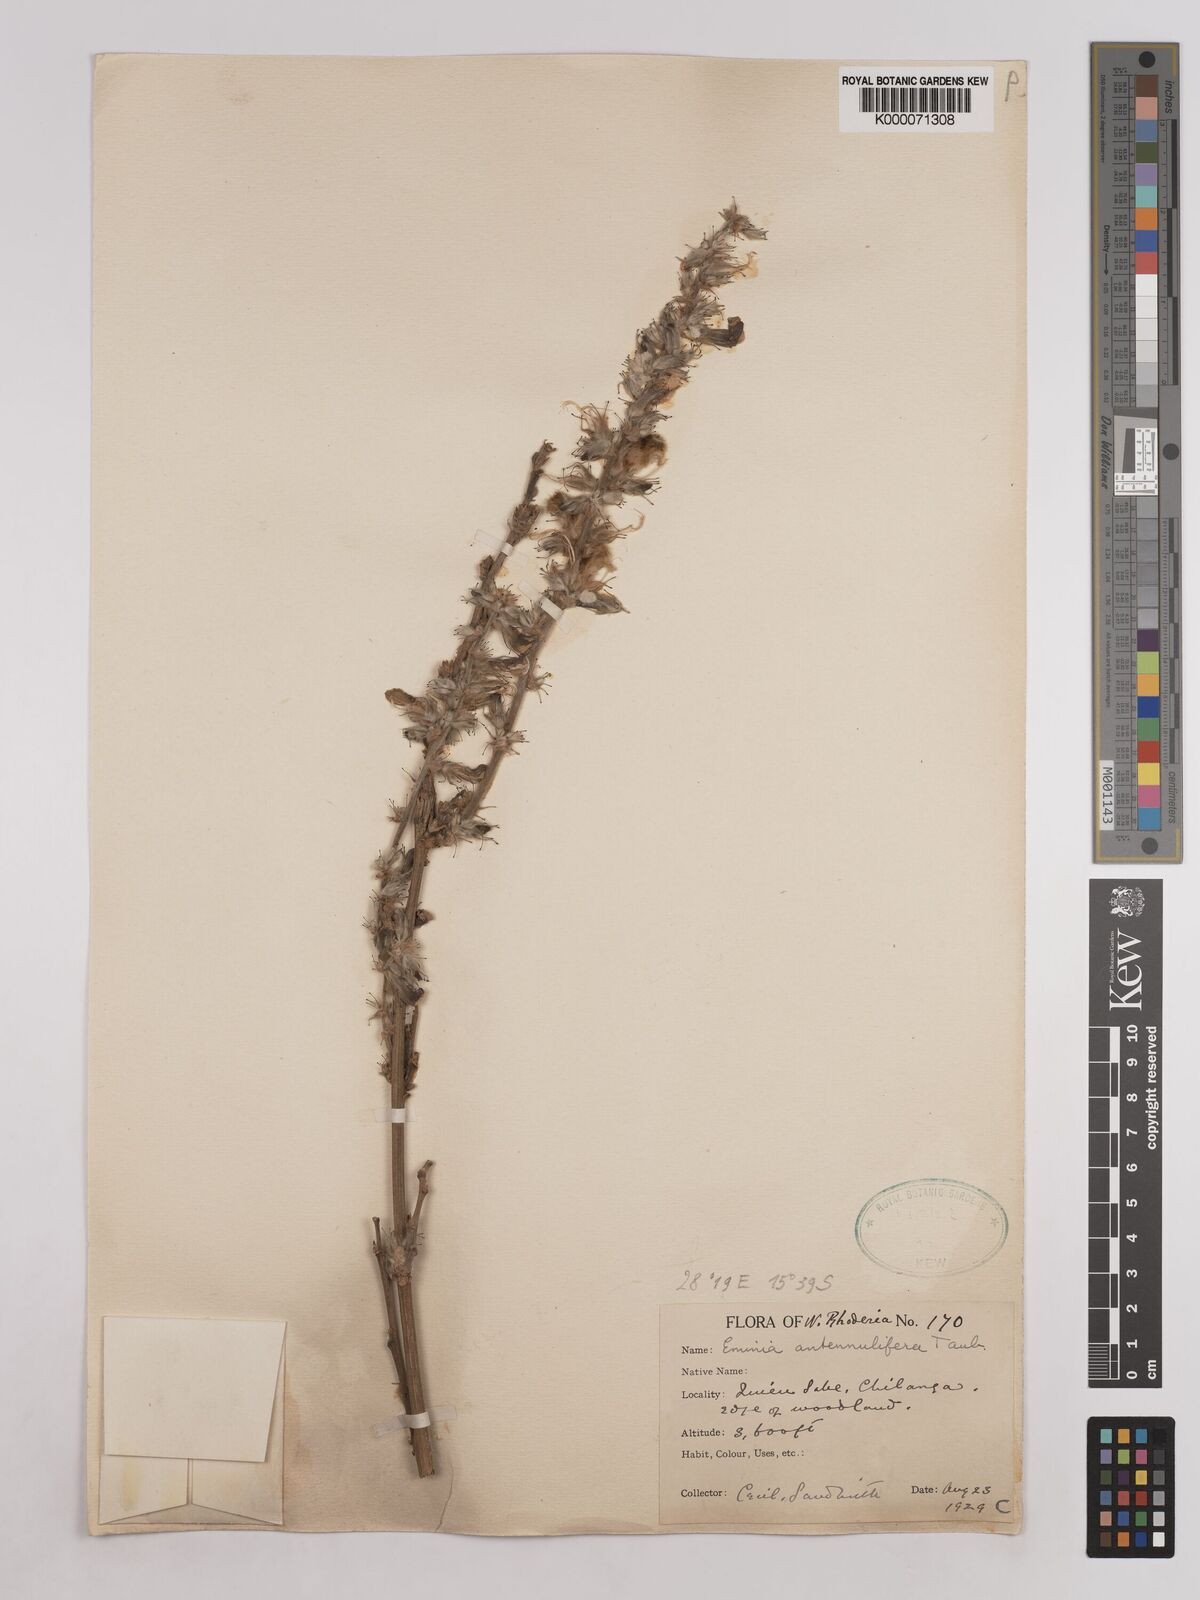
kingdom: Plantae
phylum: Tracheophyta
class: Magnoliopsida
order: Fabales
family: Fabaceae
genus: Eminia
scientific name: Eminia antennulifera
